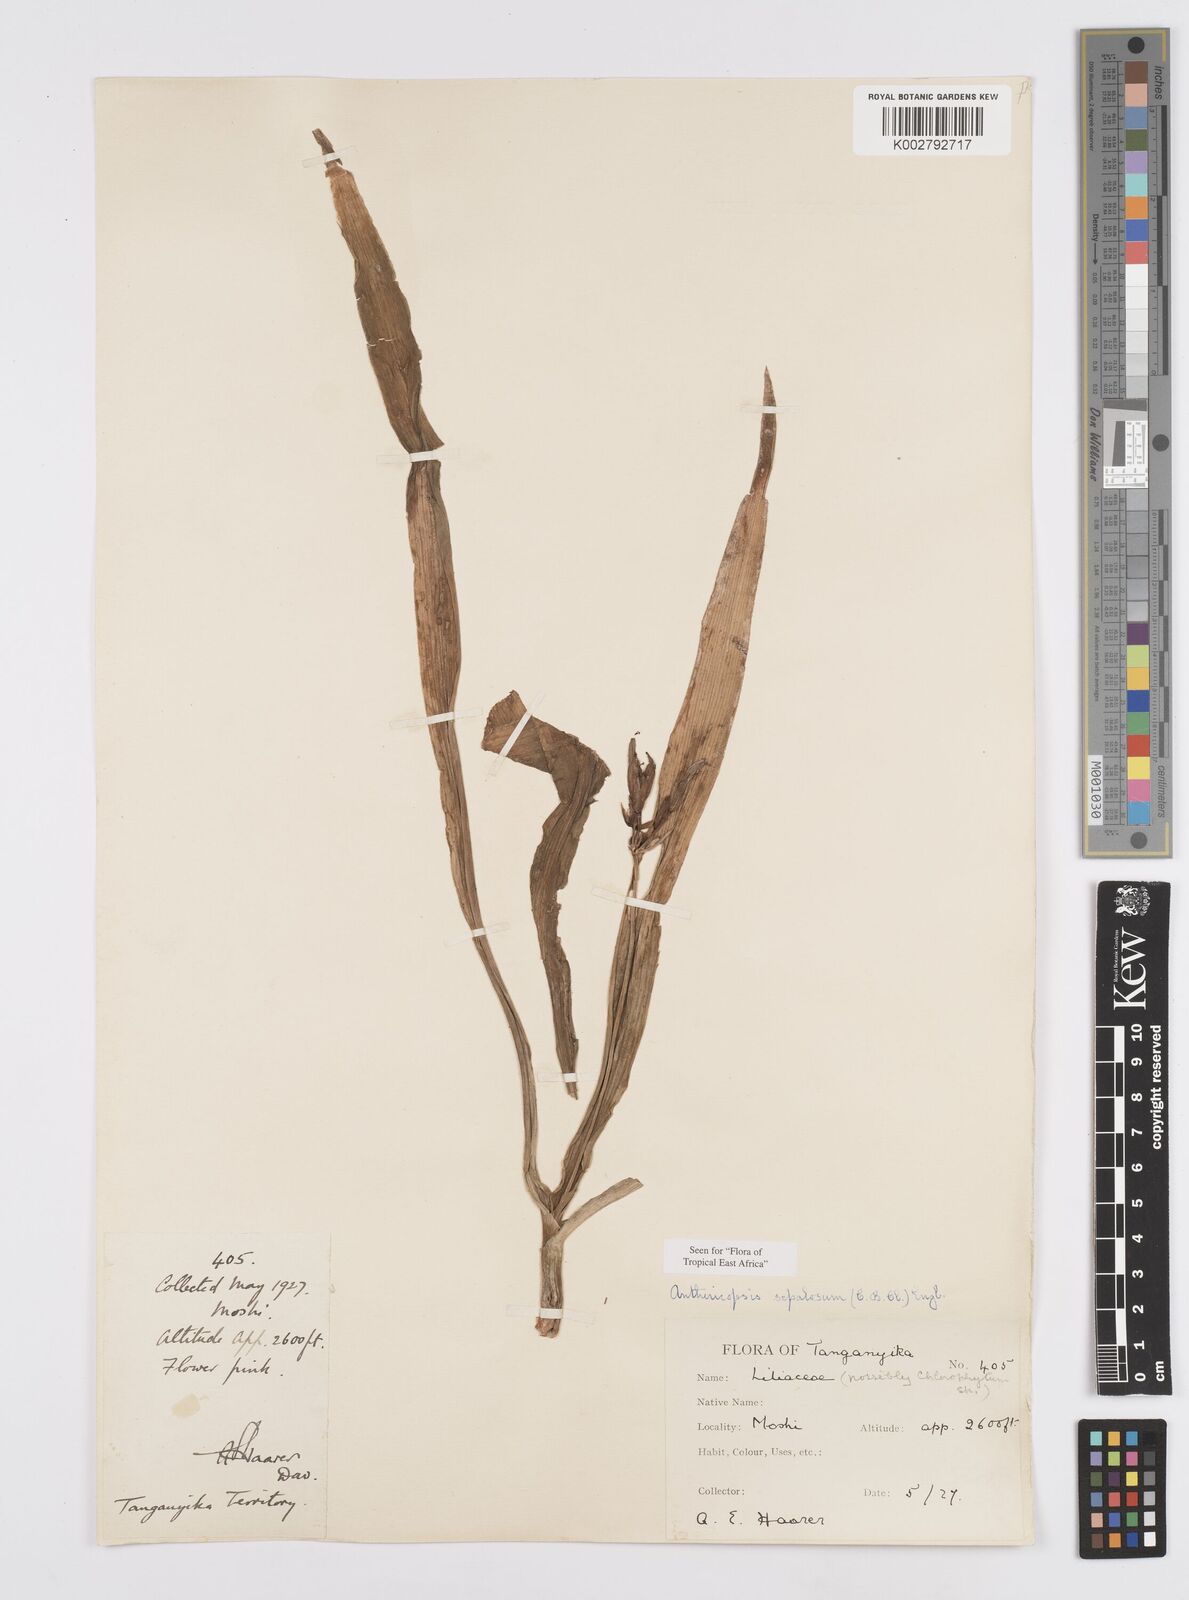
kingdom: Plantae
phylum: Tracheophyta
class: Liliopsida
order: Commelinales
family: Commelinaceae
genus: Anthericopsis
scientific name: Anthericopsis sepalosa
